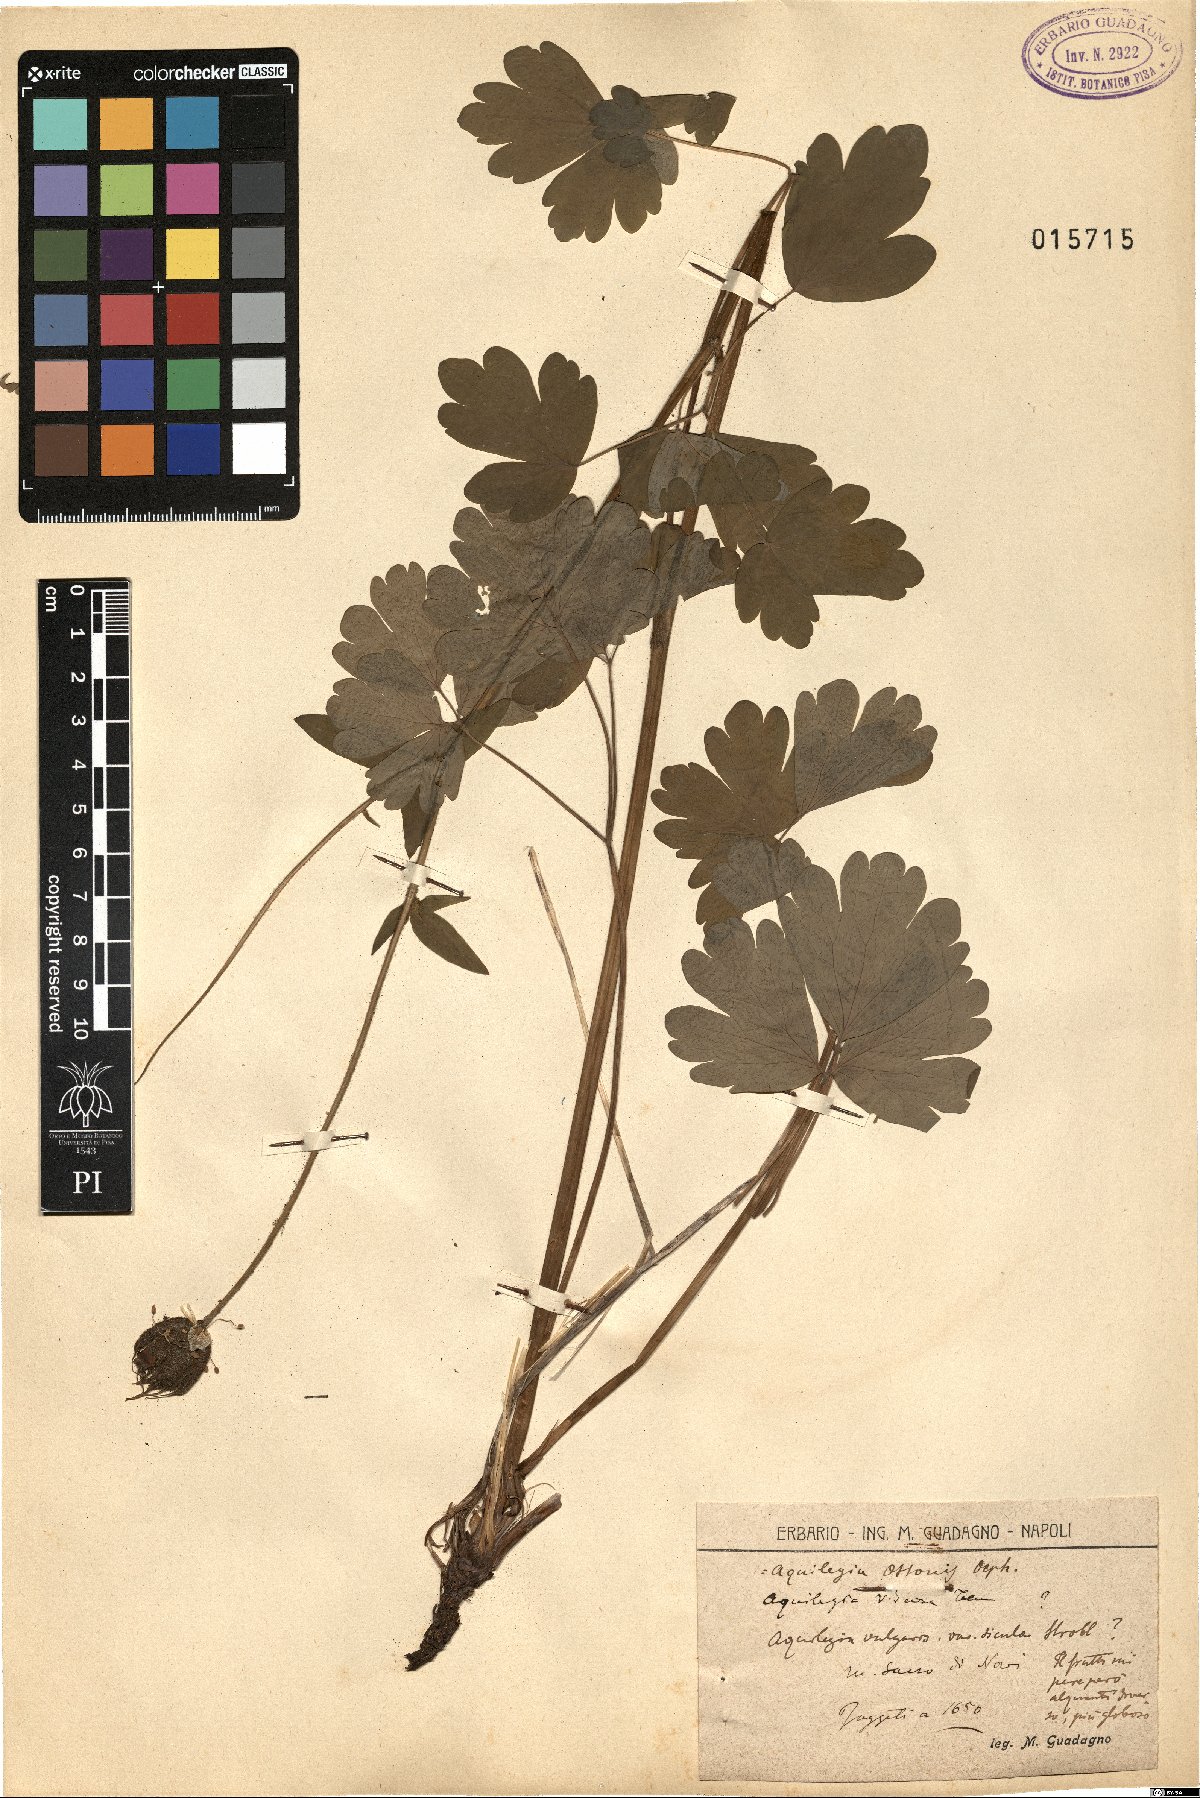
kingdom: Plantae
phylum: Tracheophyta
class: Magnoliopsida
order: Ranunculales
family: Ranunculaceae
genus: Aquilegia
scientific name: Aquilegia ottonis
